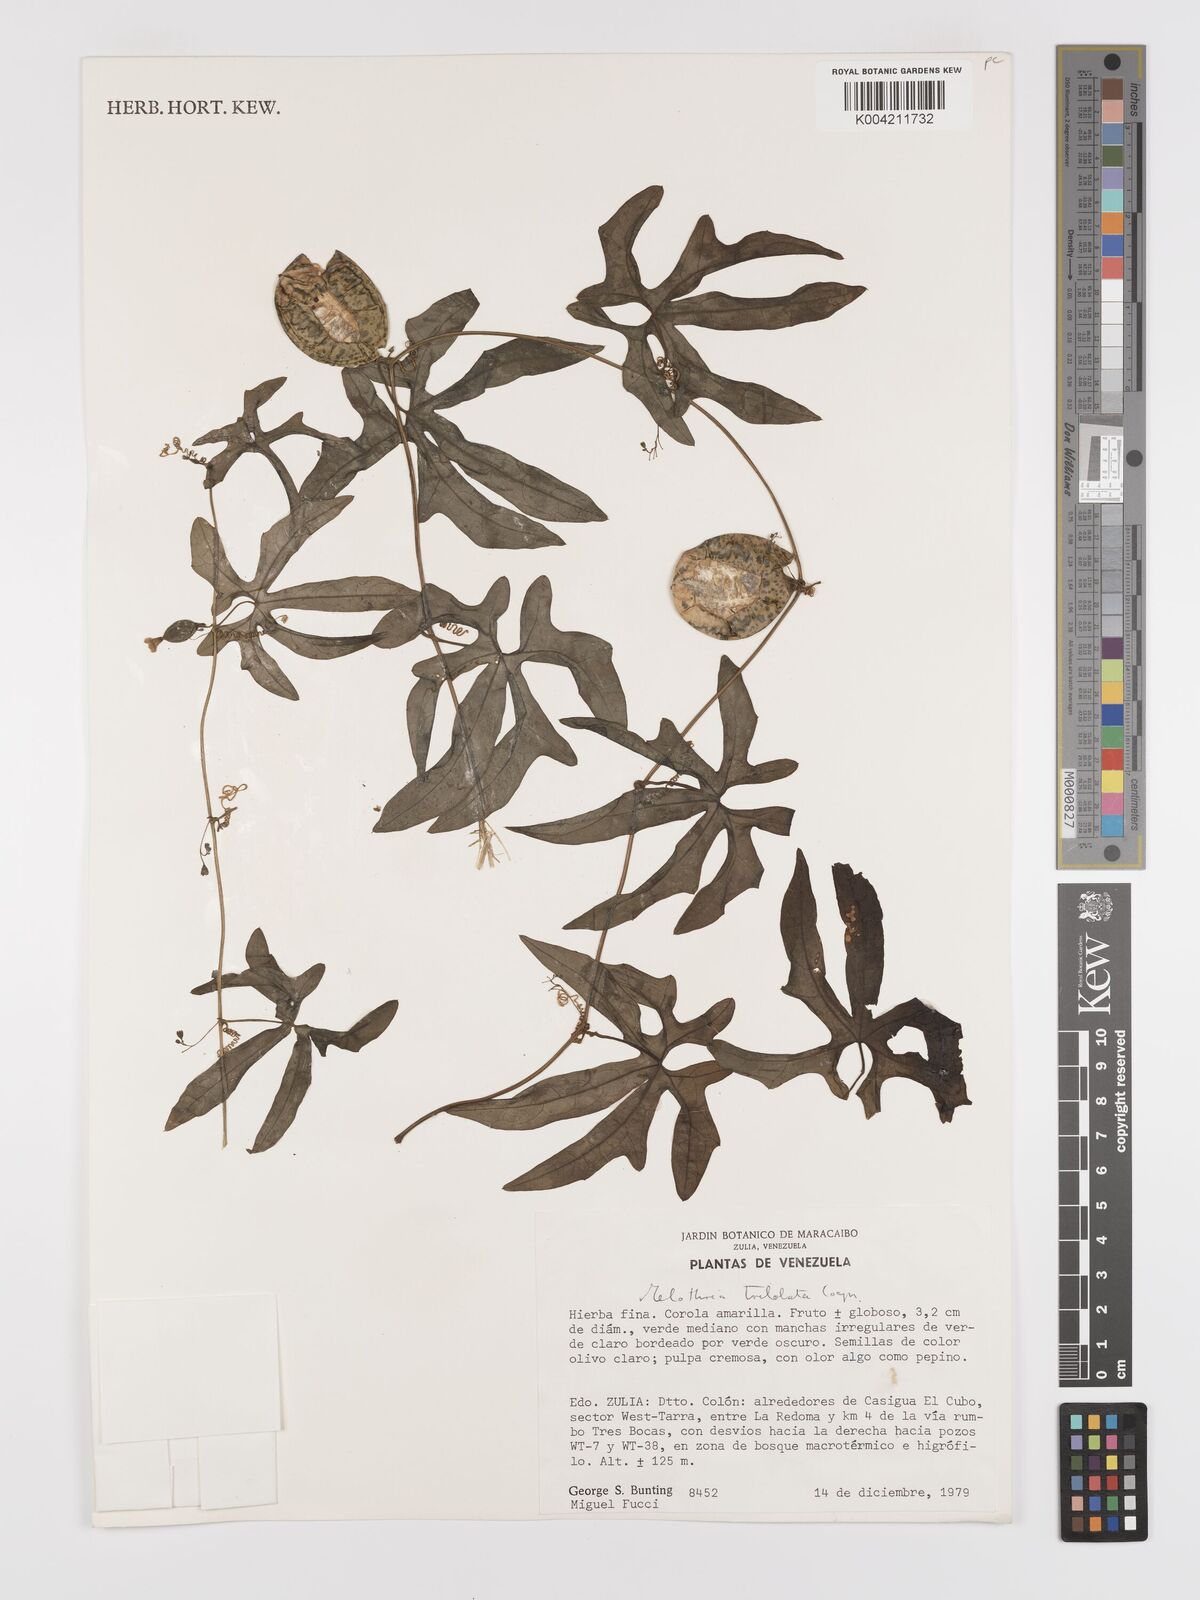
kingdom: Plantae
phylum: Tracheophyta
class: Magnoliopsida
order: Cucurbitales
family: Cucurbitaceae
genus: Melothria
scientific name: Melothria trilobata
